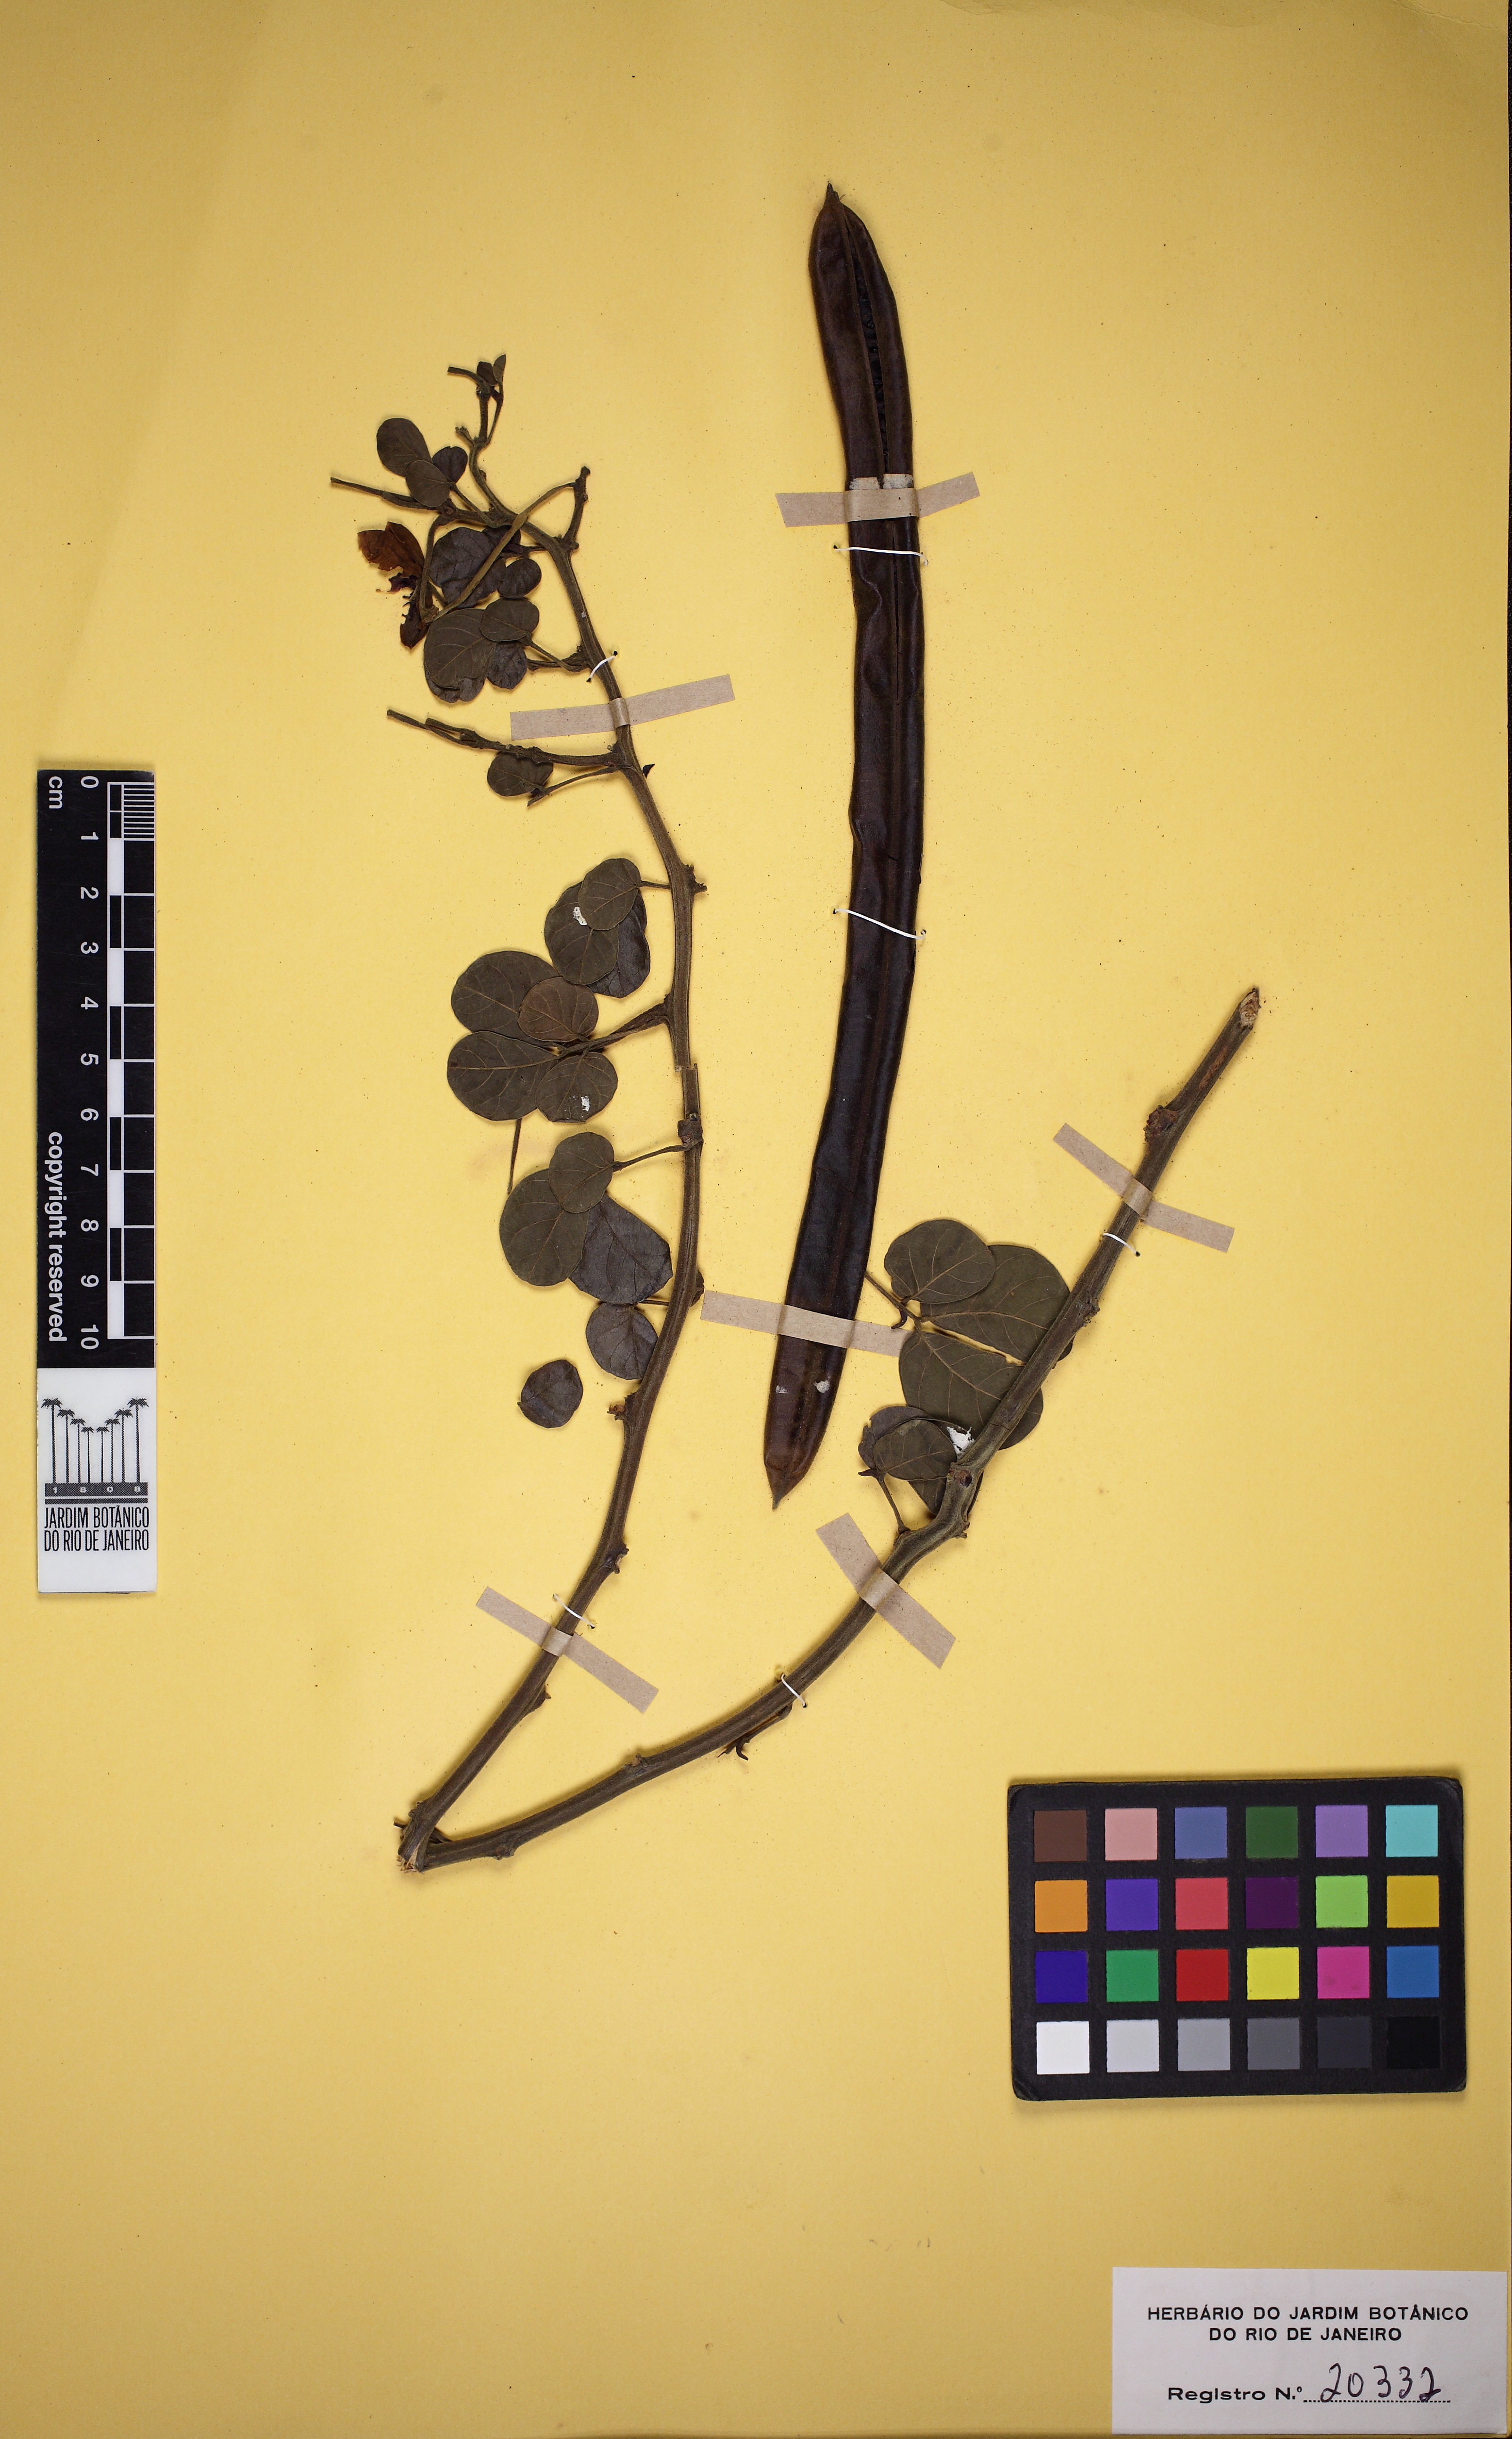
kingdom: Plantae
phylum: Tracheophyta
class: Magnoliopsida
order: Fabales
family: Fabaceae
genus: Senna
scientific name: Senna tapajozensis
